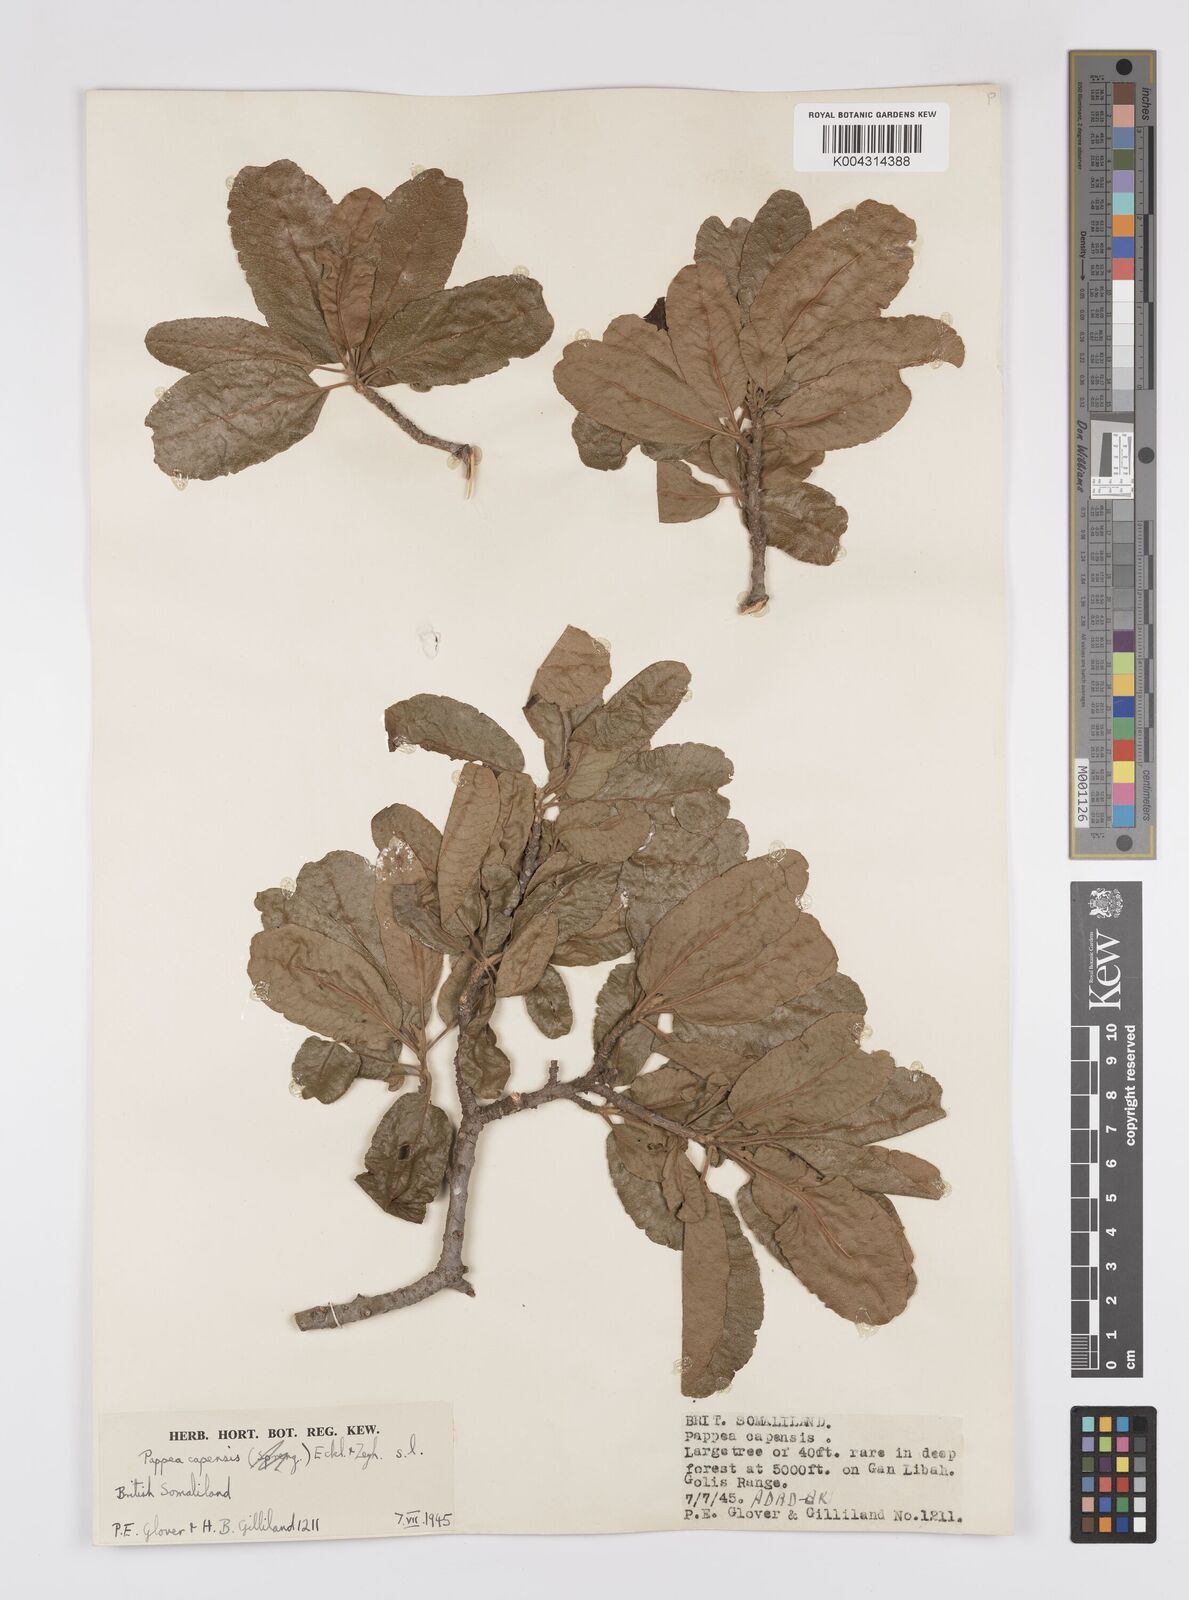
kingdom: Plantae
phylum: Tracheophyta
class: Magnoliopsida
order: Sapindales
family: Sapindaceae
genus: Pappea
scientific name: Pappea capensis
